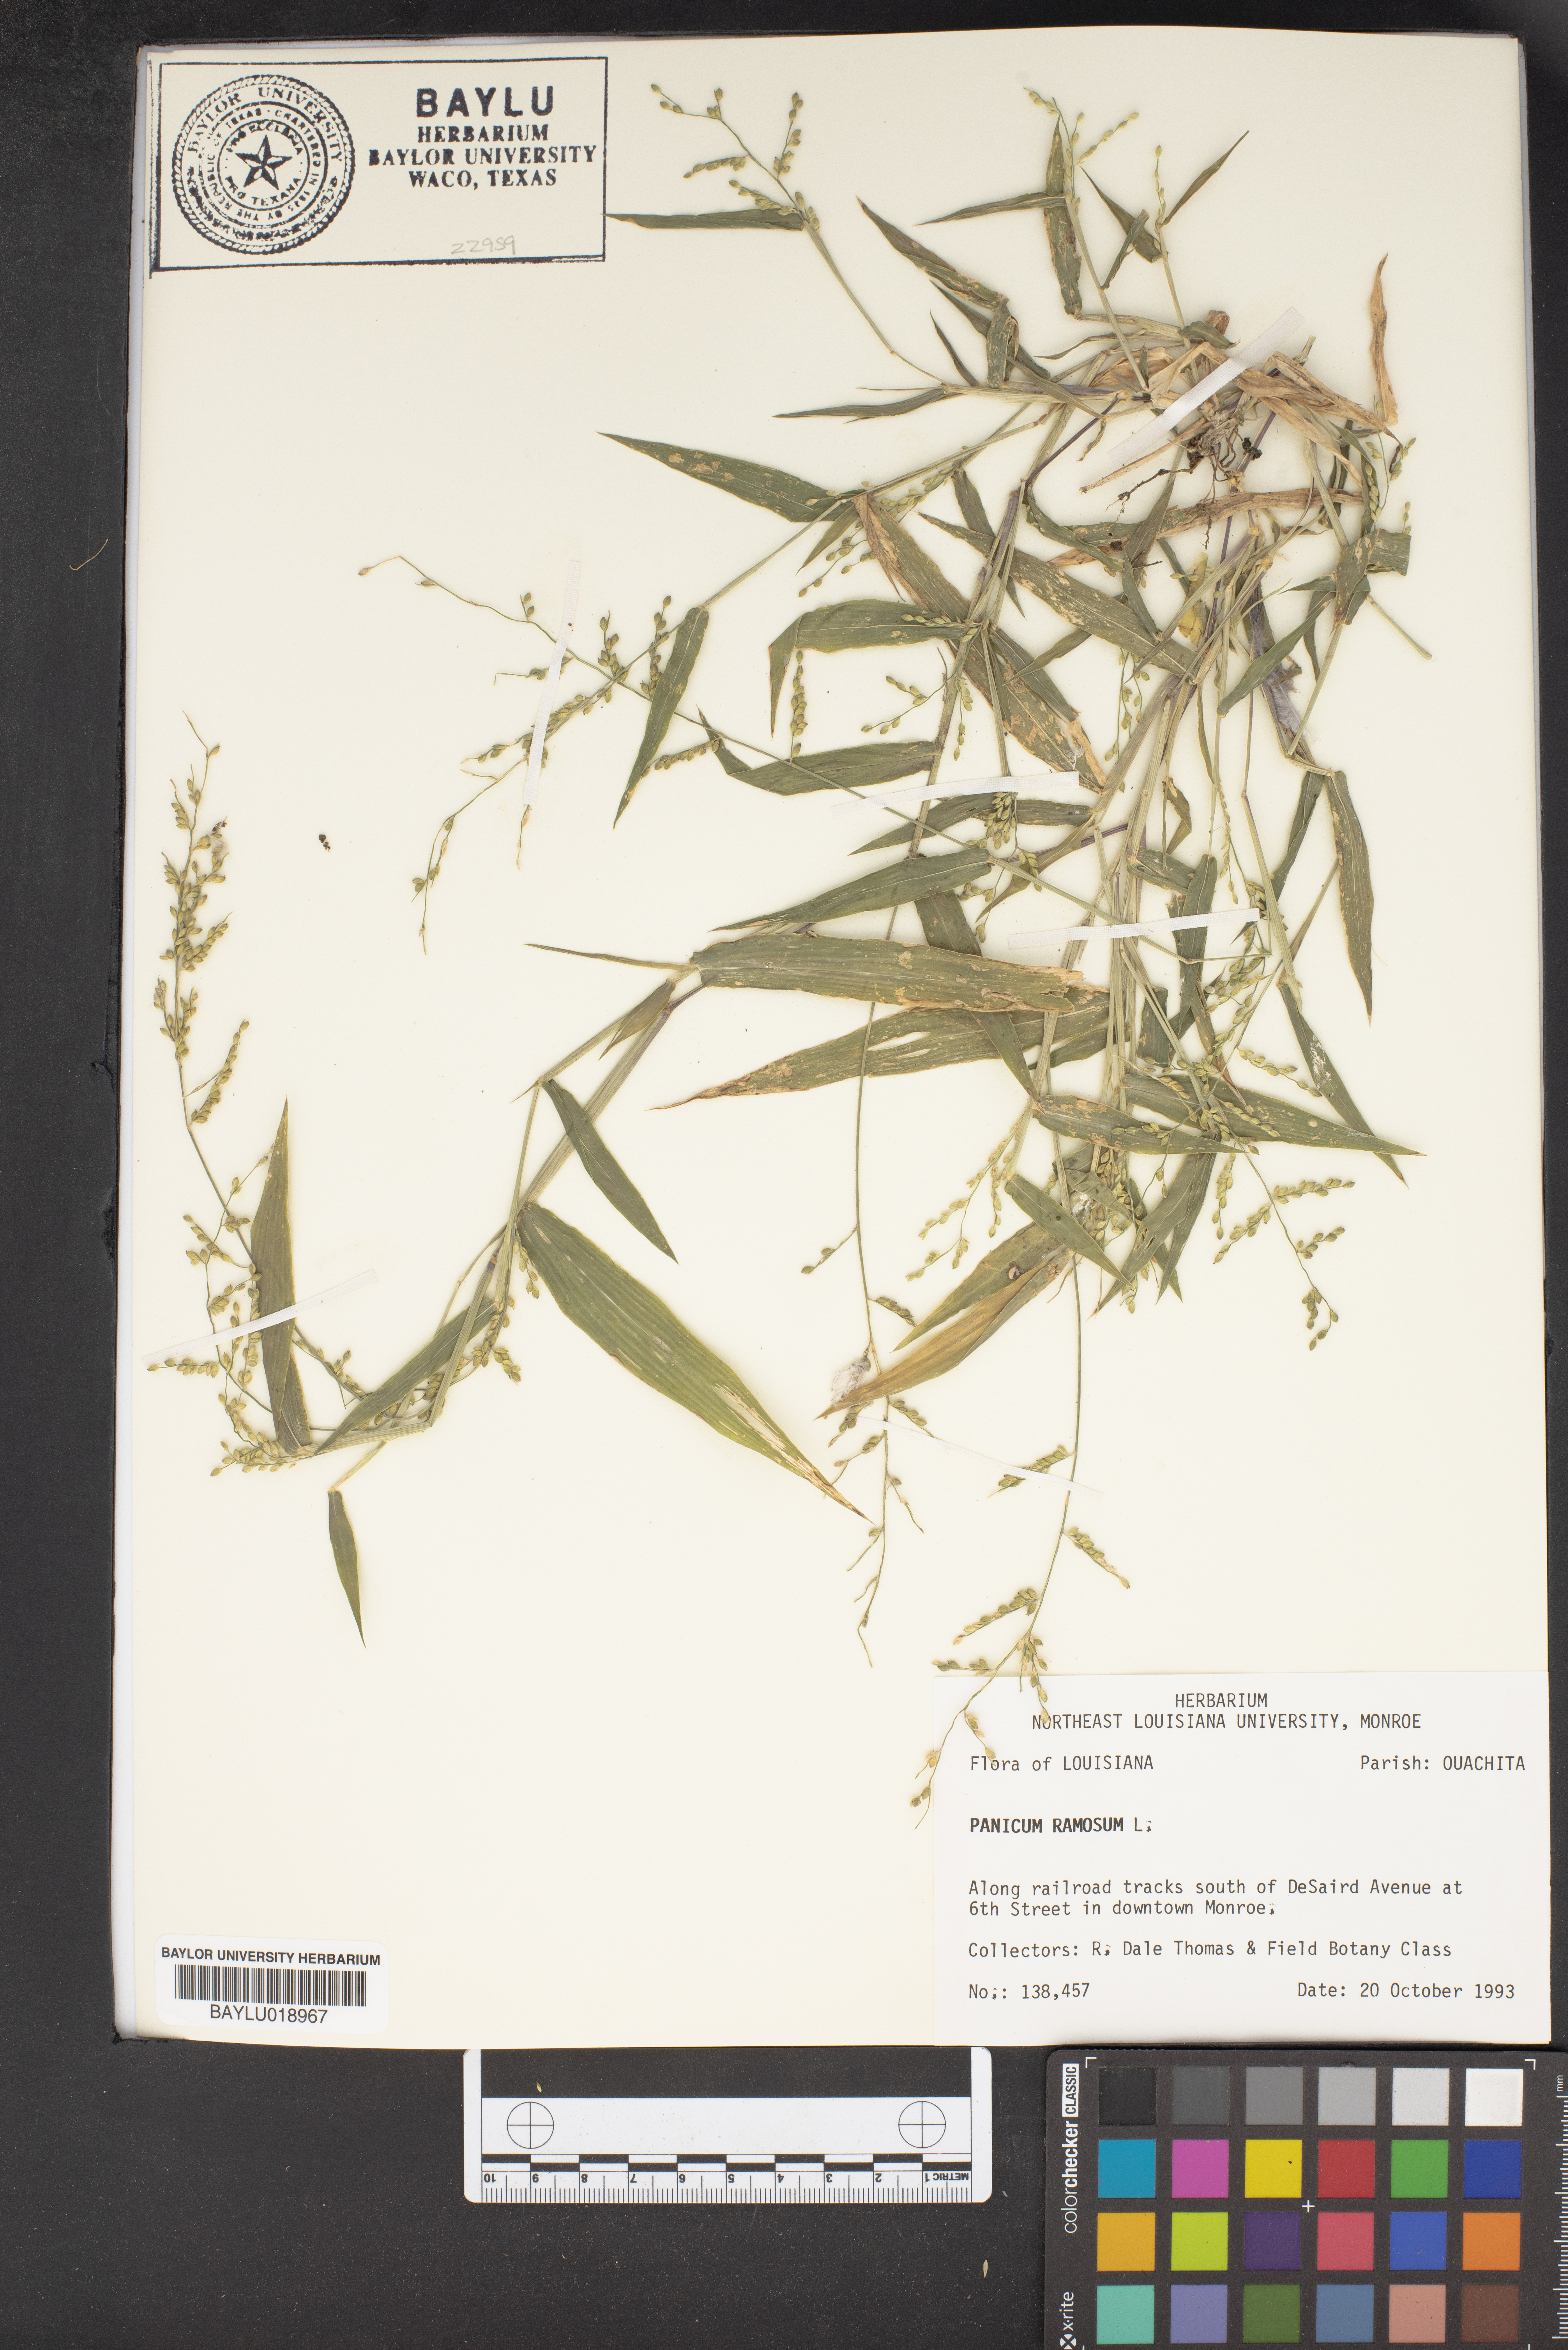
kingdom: Plantae
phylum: Tracheophyta
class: Liliopsida
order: Poales
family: Poaceae
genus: Urochloa
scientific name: Urochloa ramosa
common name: Browntop millet
